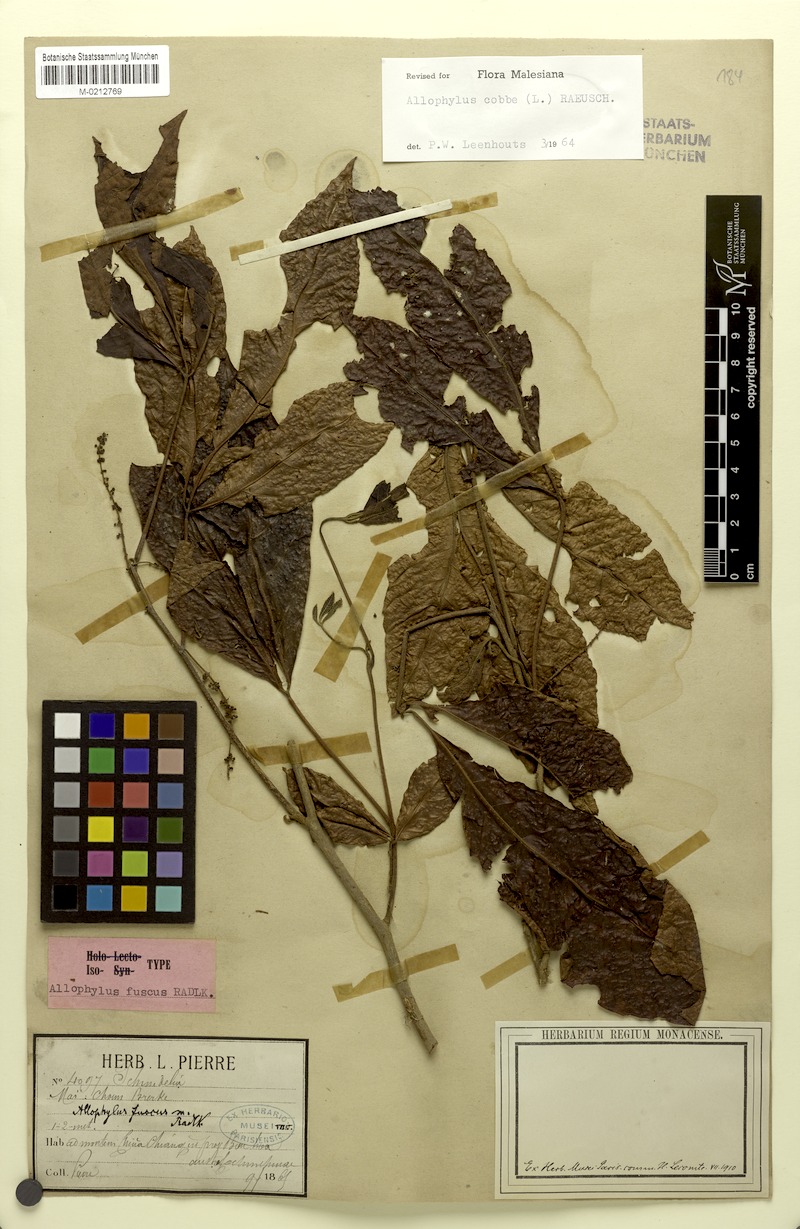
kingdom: Plantae
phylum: Tracheophyta
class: Magnoliopsida
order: Sapindales
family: Sapindaceae
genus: Allophylus
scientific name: Allophylus fuscus
